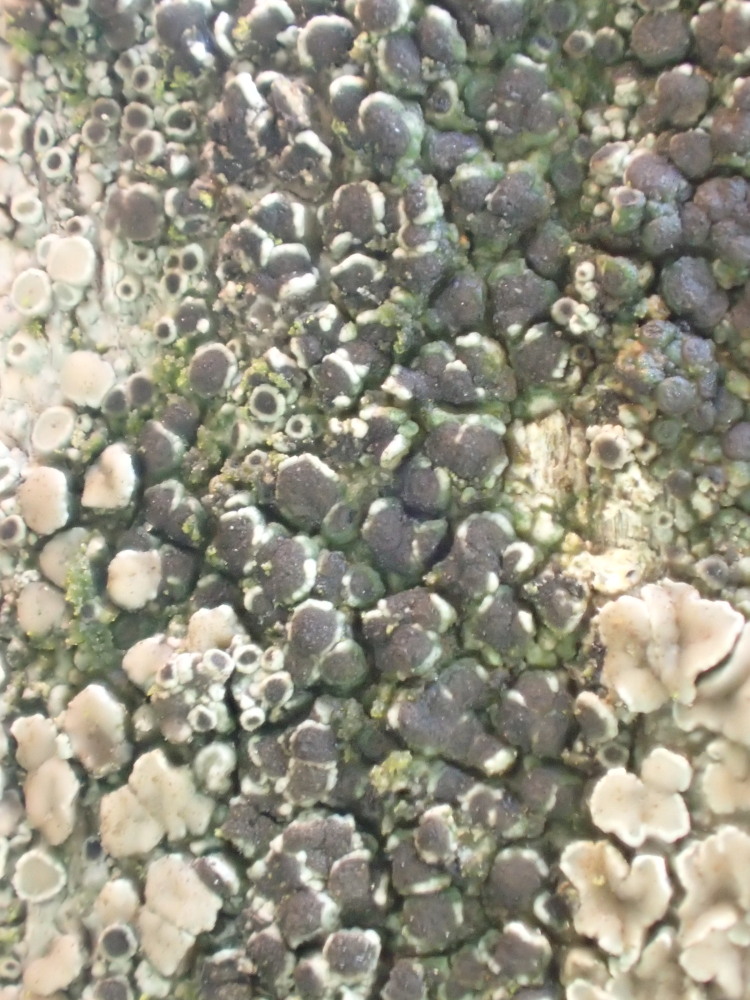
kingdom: Fungi
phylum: Ascomycota
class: Lecanoromycetes
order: Caliciales
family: Physciaceae
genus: Rinodina
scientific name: Rinodina
